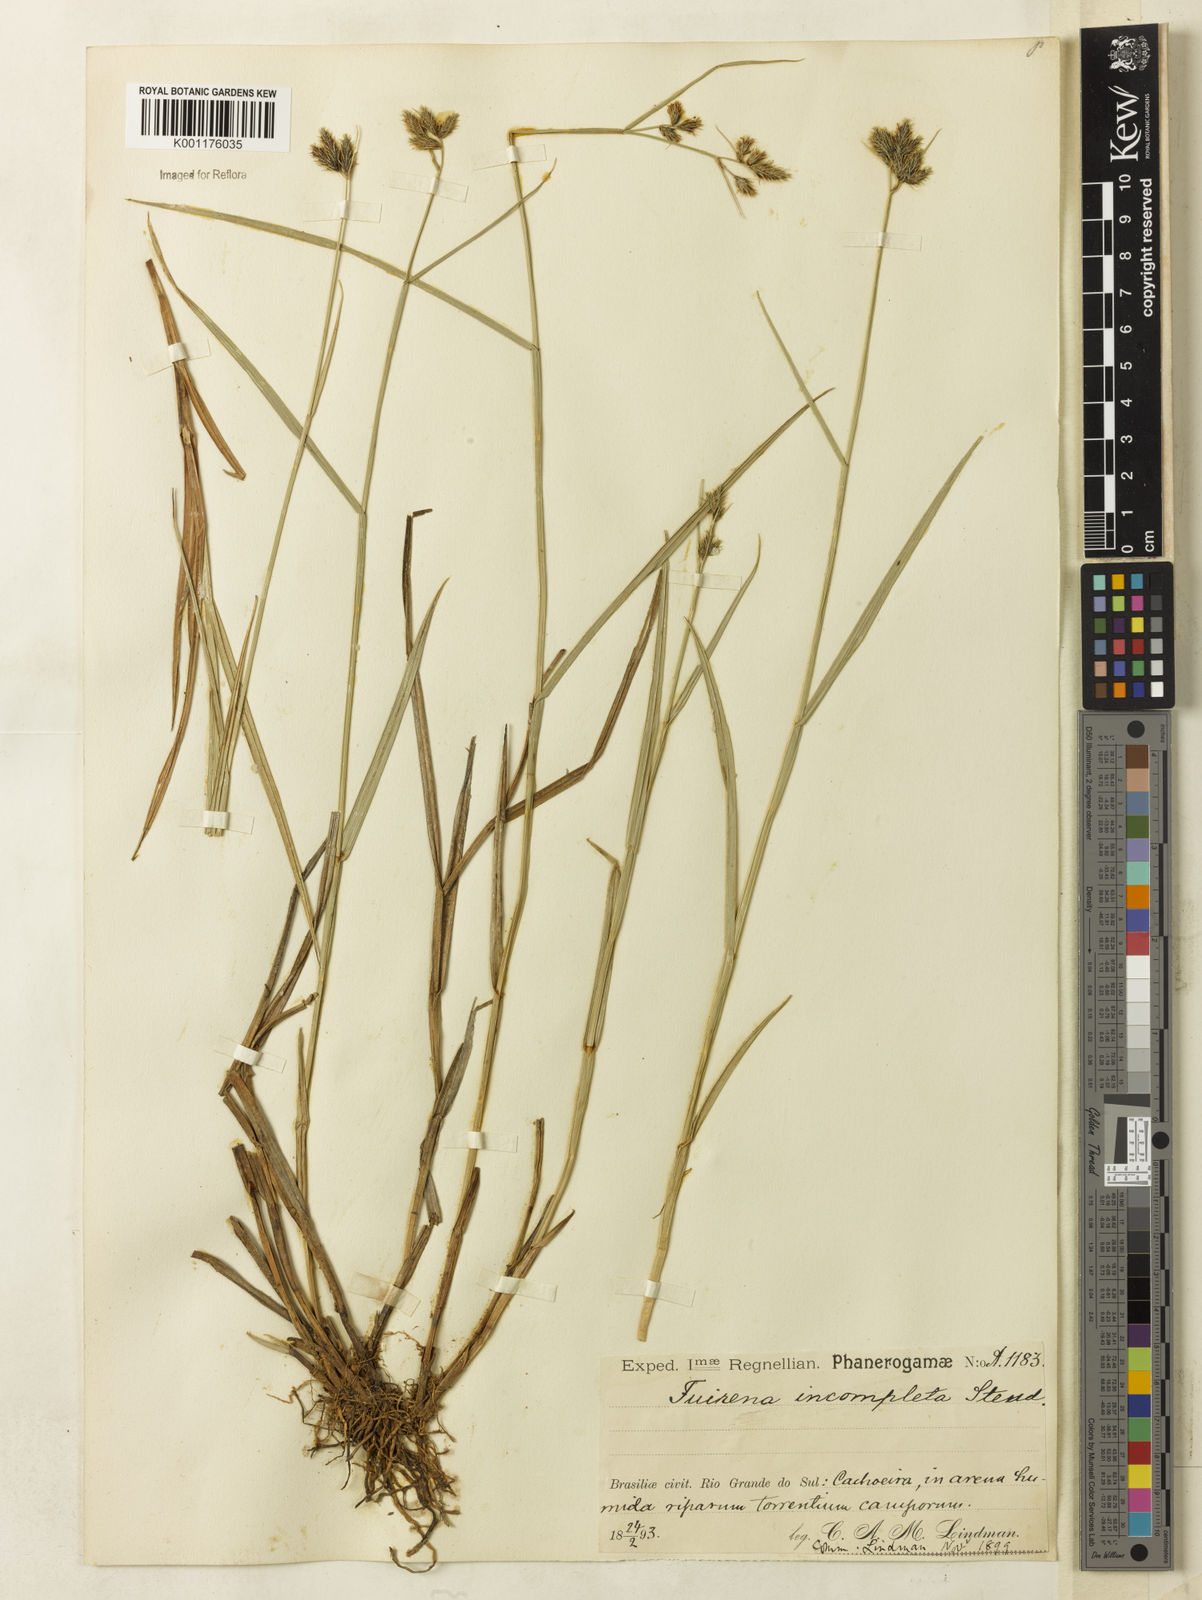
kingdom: Plantae
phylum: Tracheophyta
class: Liliopsida
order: Poales
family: Cyperaceae
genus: Fuirena
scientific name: Fuirena incompleta
